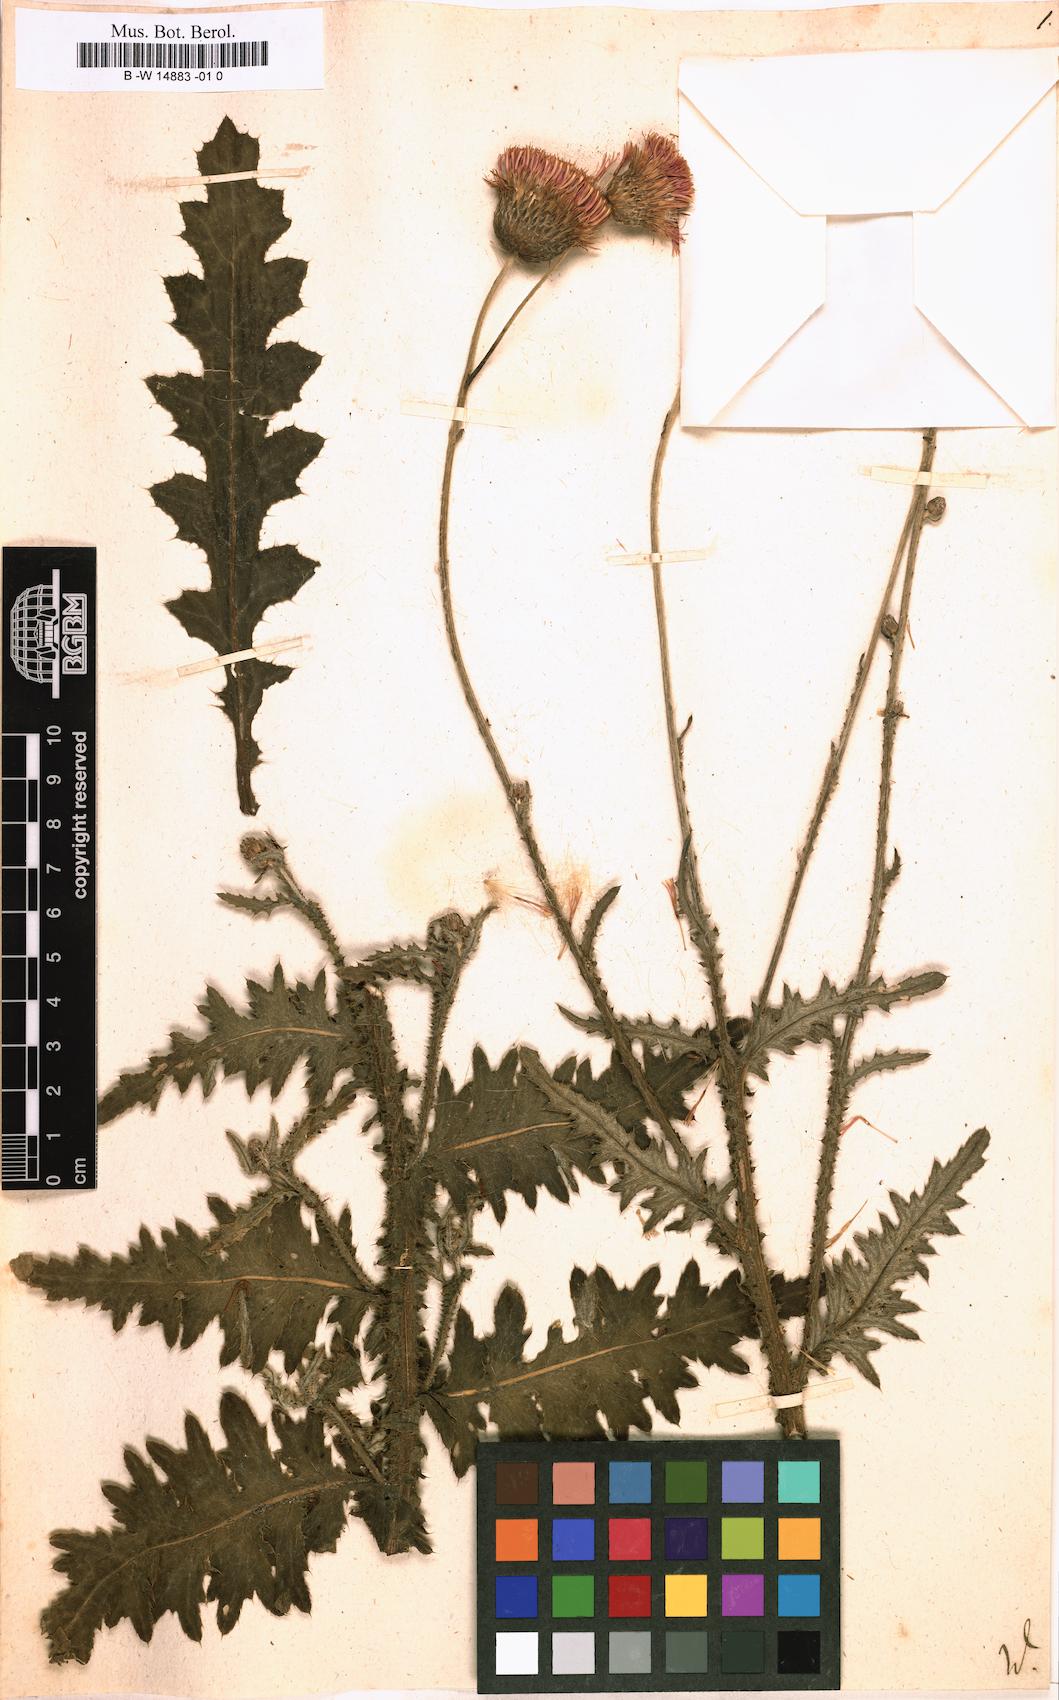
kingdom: Plantae
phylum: Tracheophyta
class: Magnoliopsida
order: Asterales
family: Asteraceae
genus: Carduus
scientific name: Carduus
